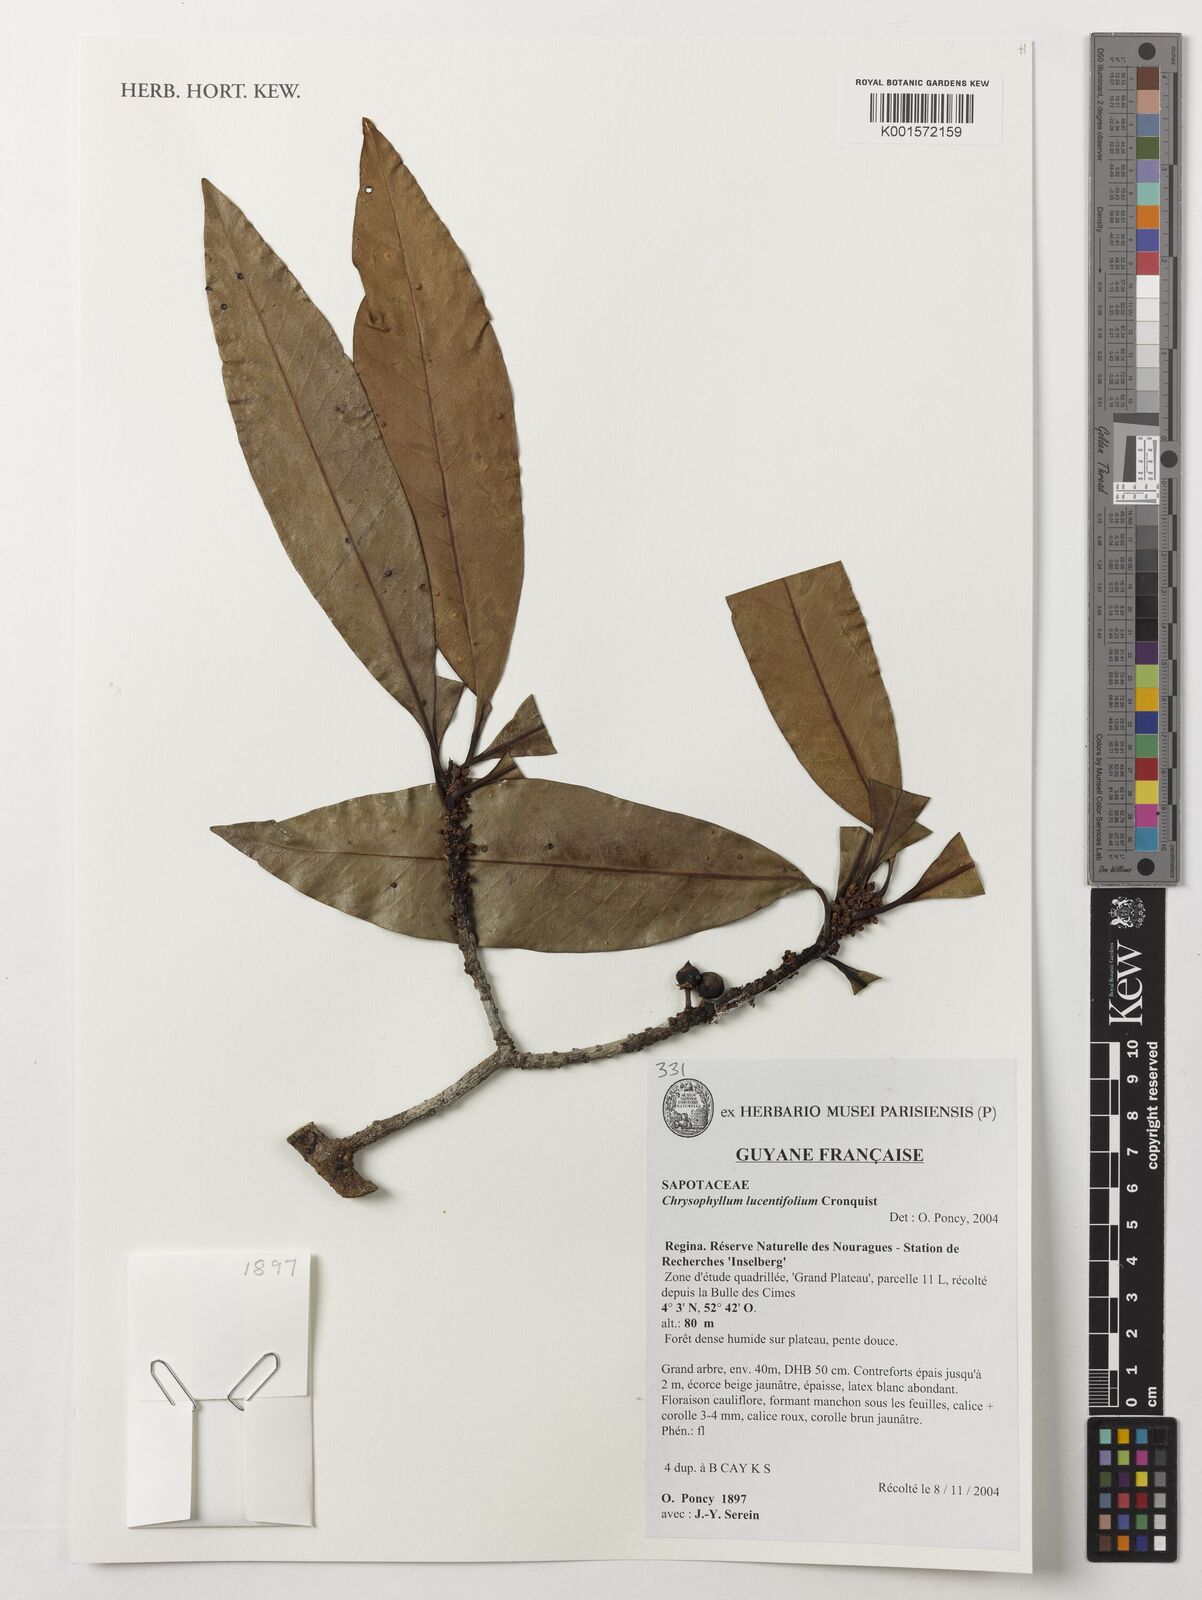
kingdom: Plantae
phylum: Tracheophyta
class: Magnoliopsida
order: Ericales
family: Sapotaceae
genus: Chrysophyllum
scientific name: Chrysophyllum lucentifolium
